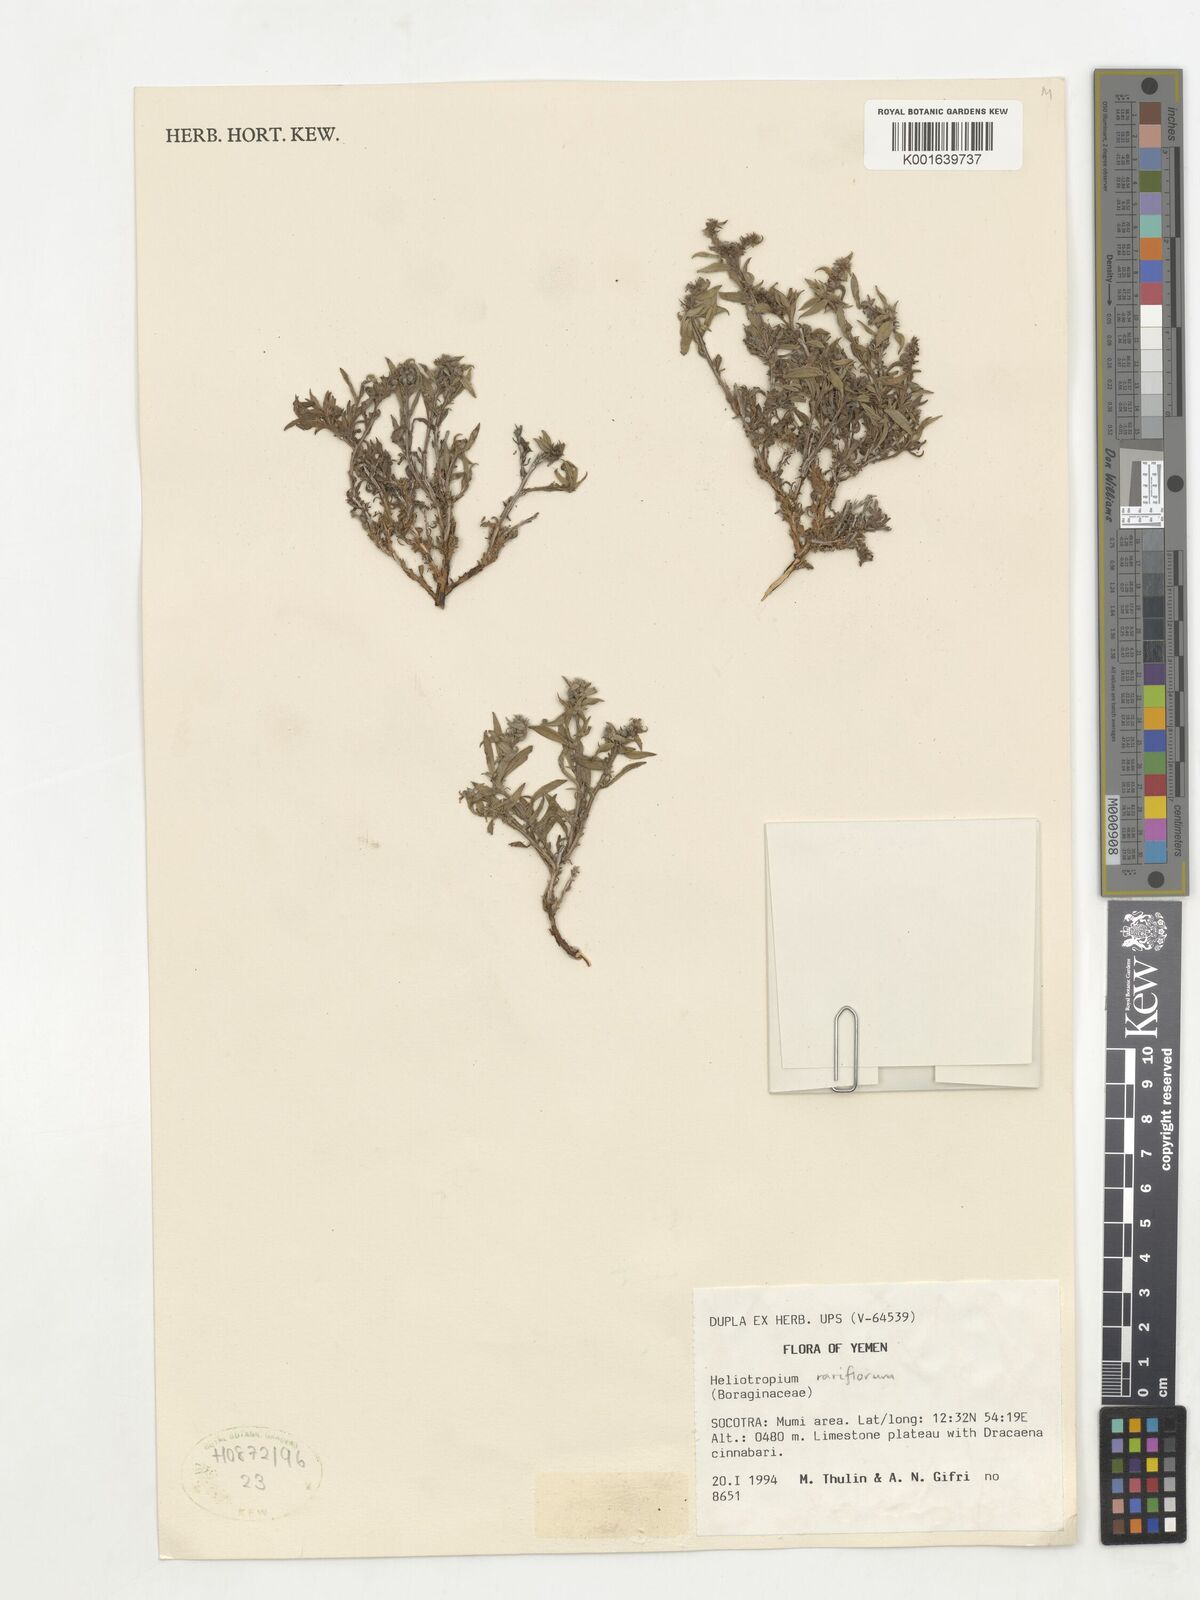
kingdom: Plantae
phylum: Tracheophyta
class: Magnoliopsida
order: Boraginales
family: Heliotropiaceae
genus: Euploca
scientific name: Euploca rariflora
